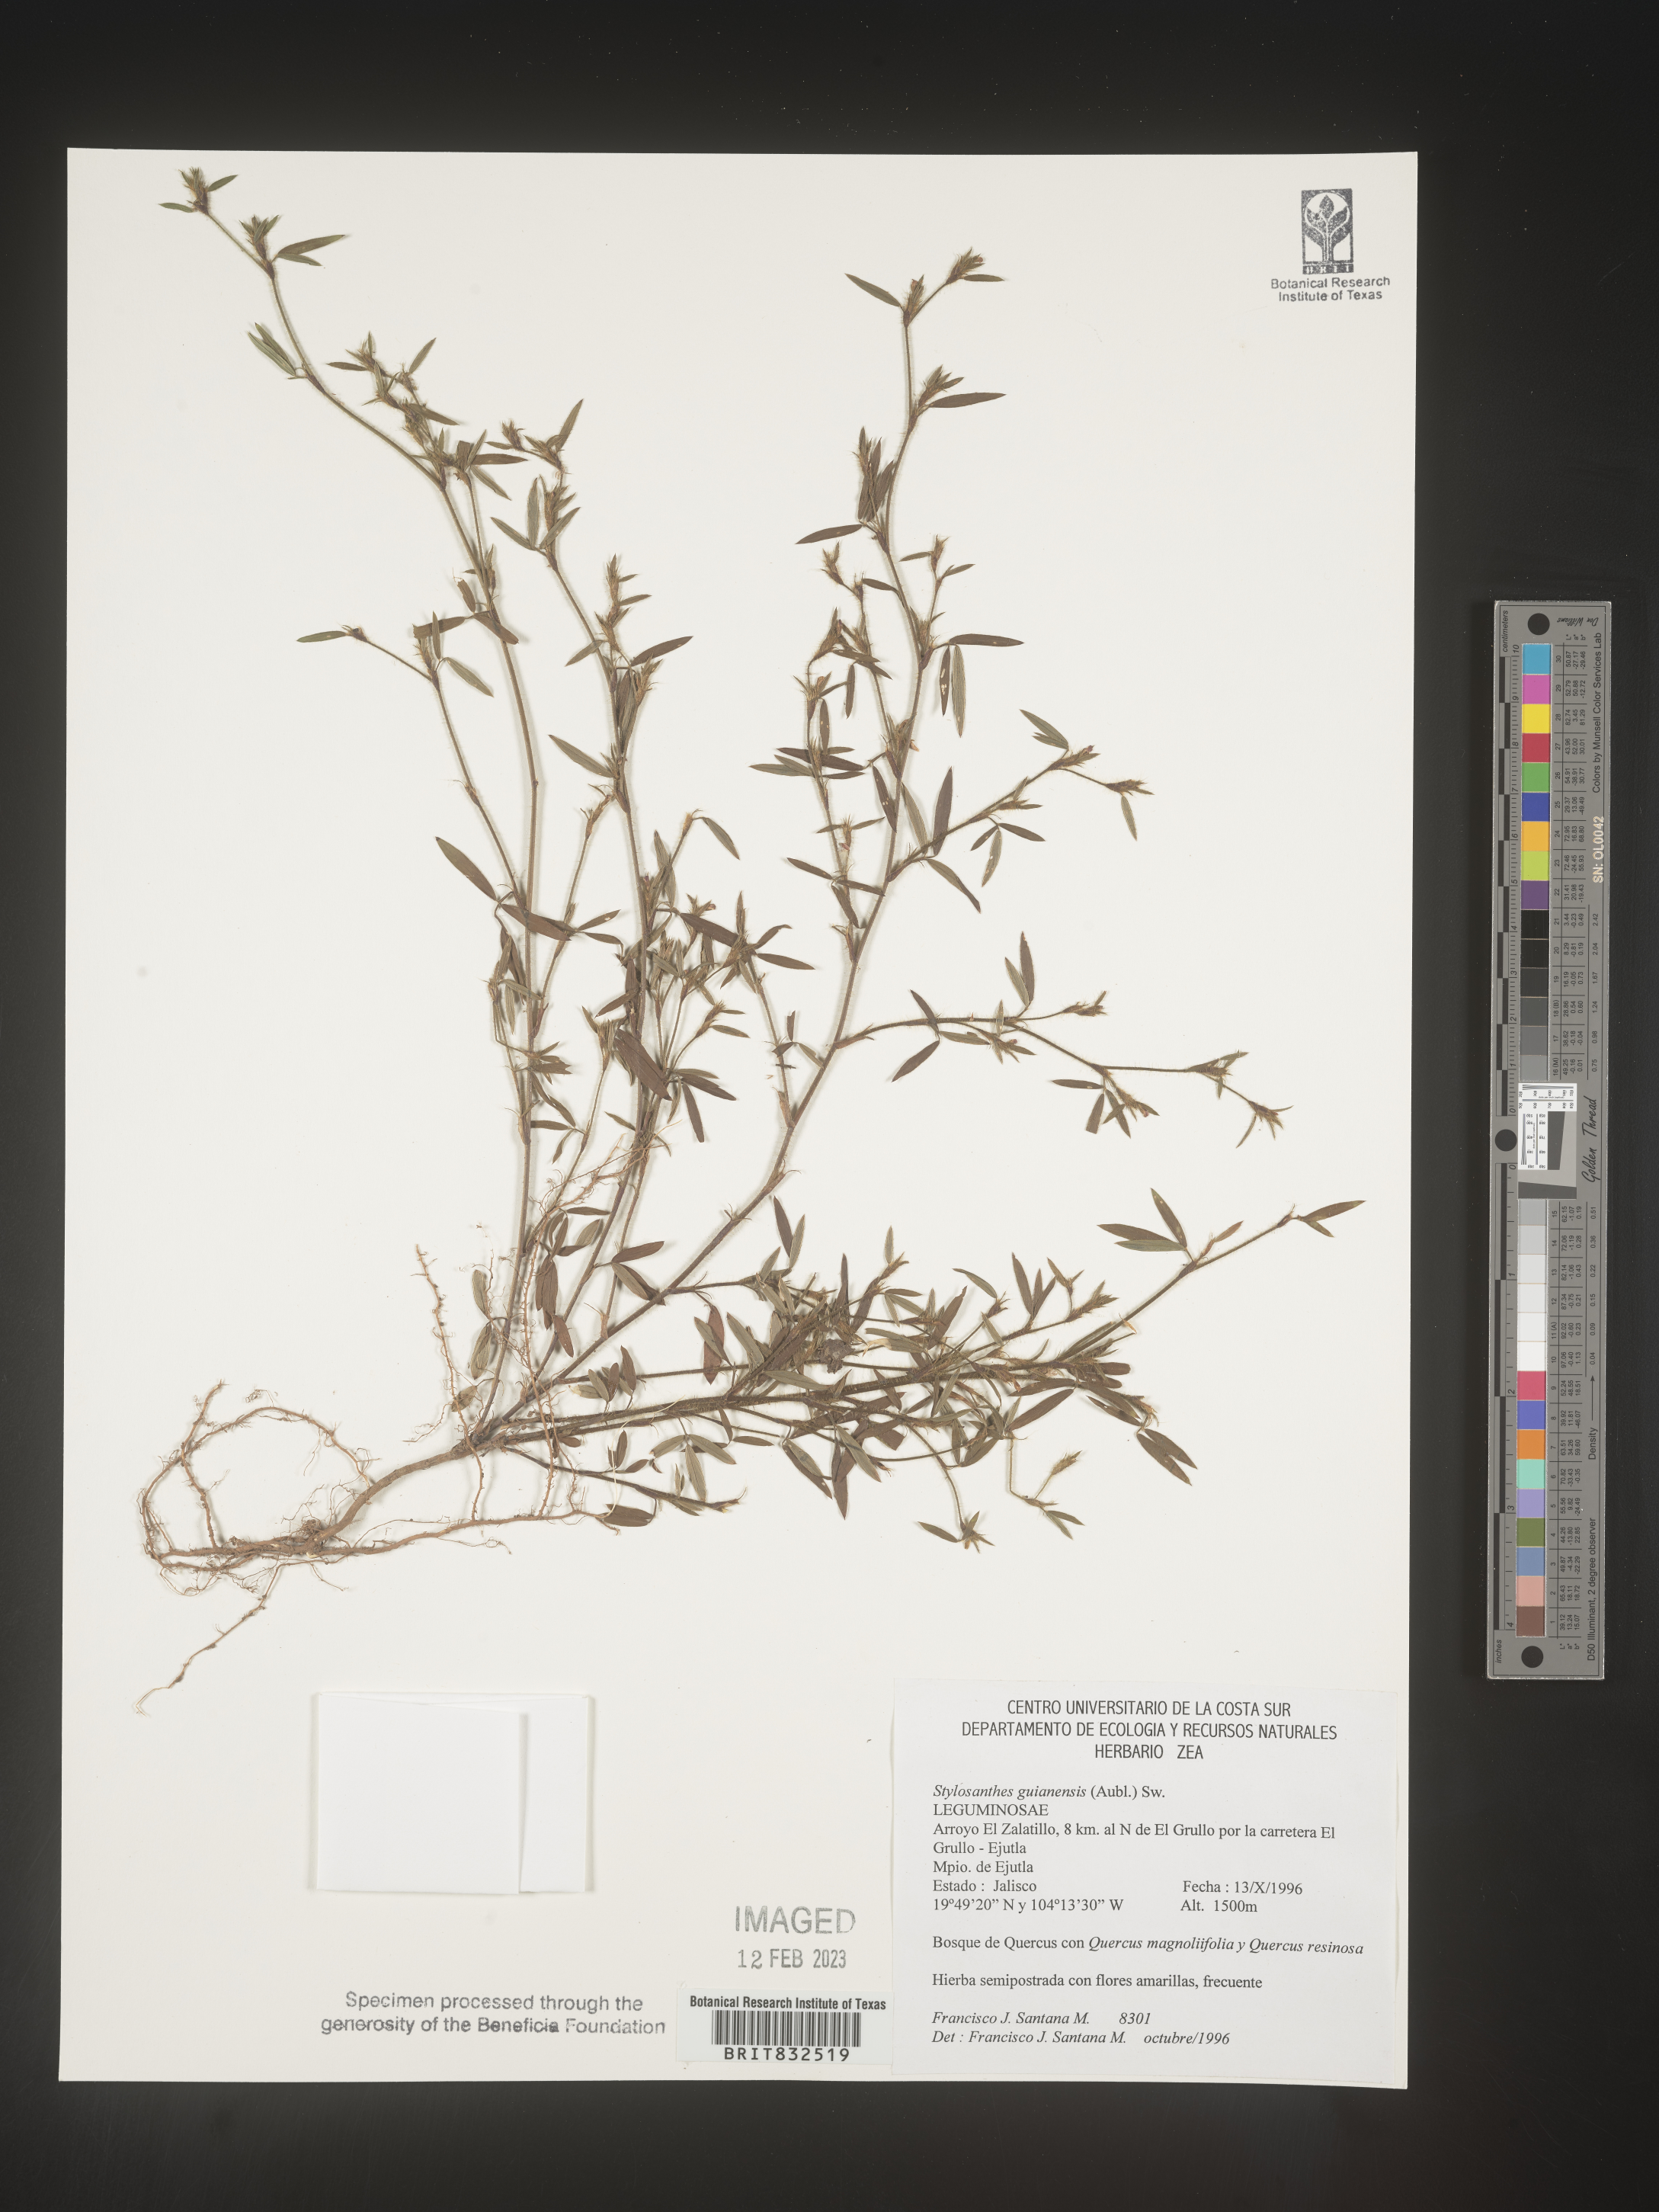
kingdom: Plantae
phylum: Tracheophyta
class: Magnoliopsida
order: Fabales
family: Fabaceae
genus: Stylosanthes
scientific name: Stylosanthes
